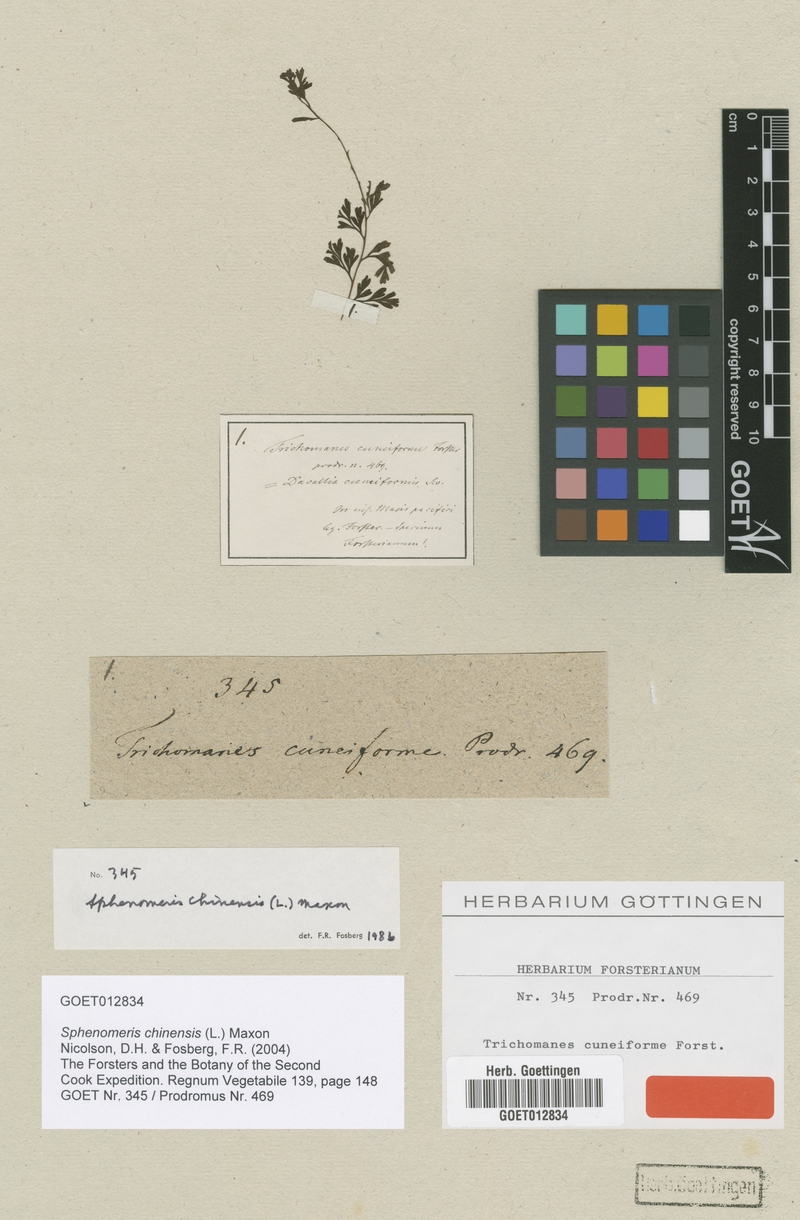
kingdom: Plantae
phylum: Tracheophyta
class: Polypodiopsida
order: Polypodiales
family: Lindsaeaceae
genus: Odontosoria
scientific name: Odontosoria chinensis
